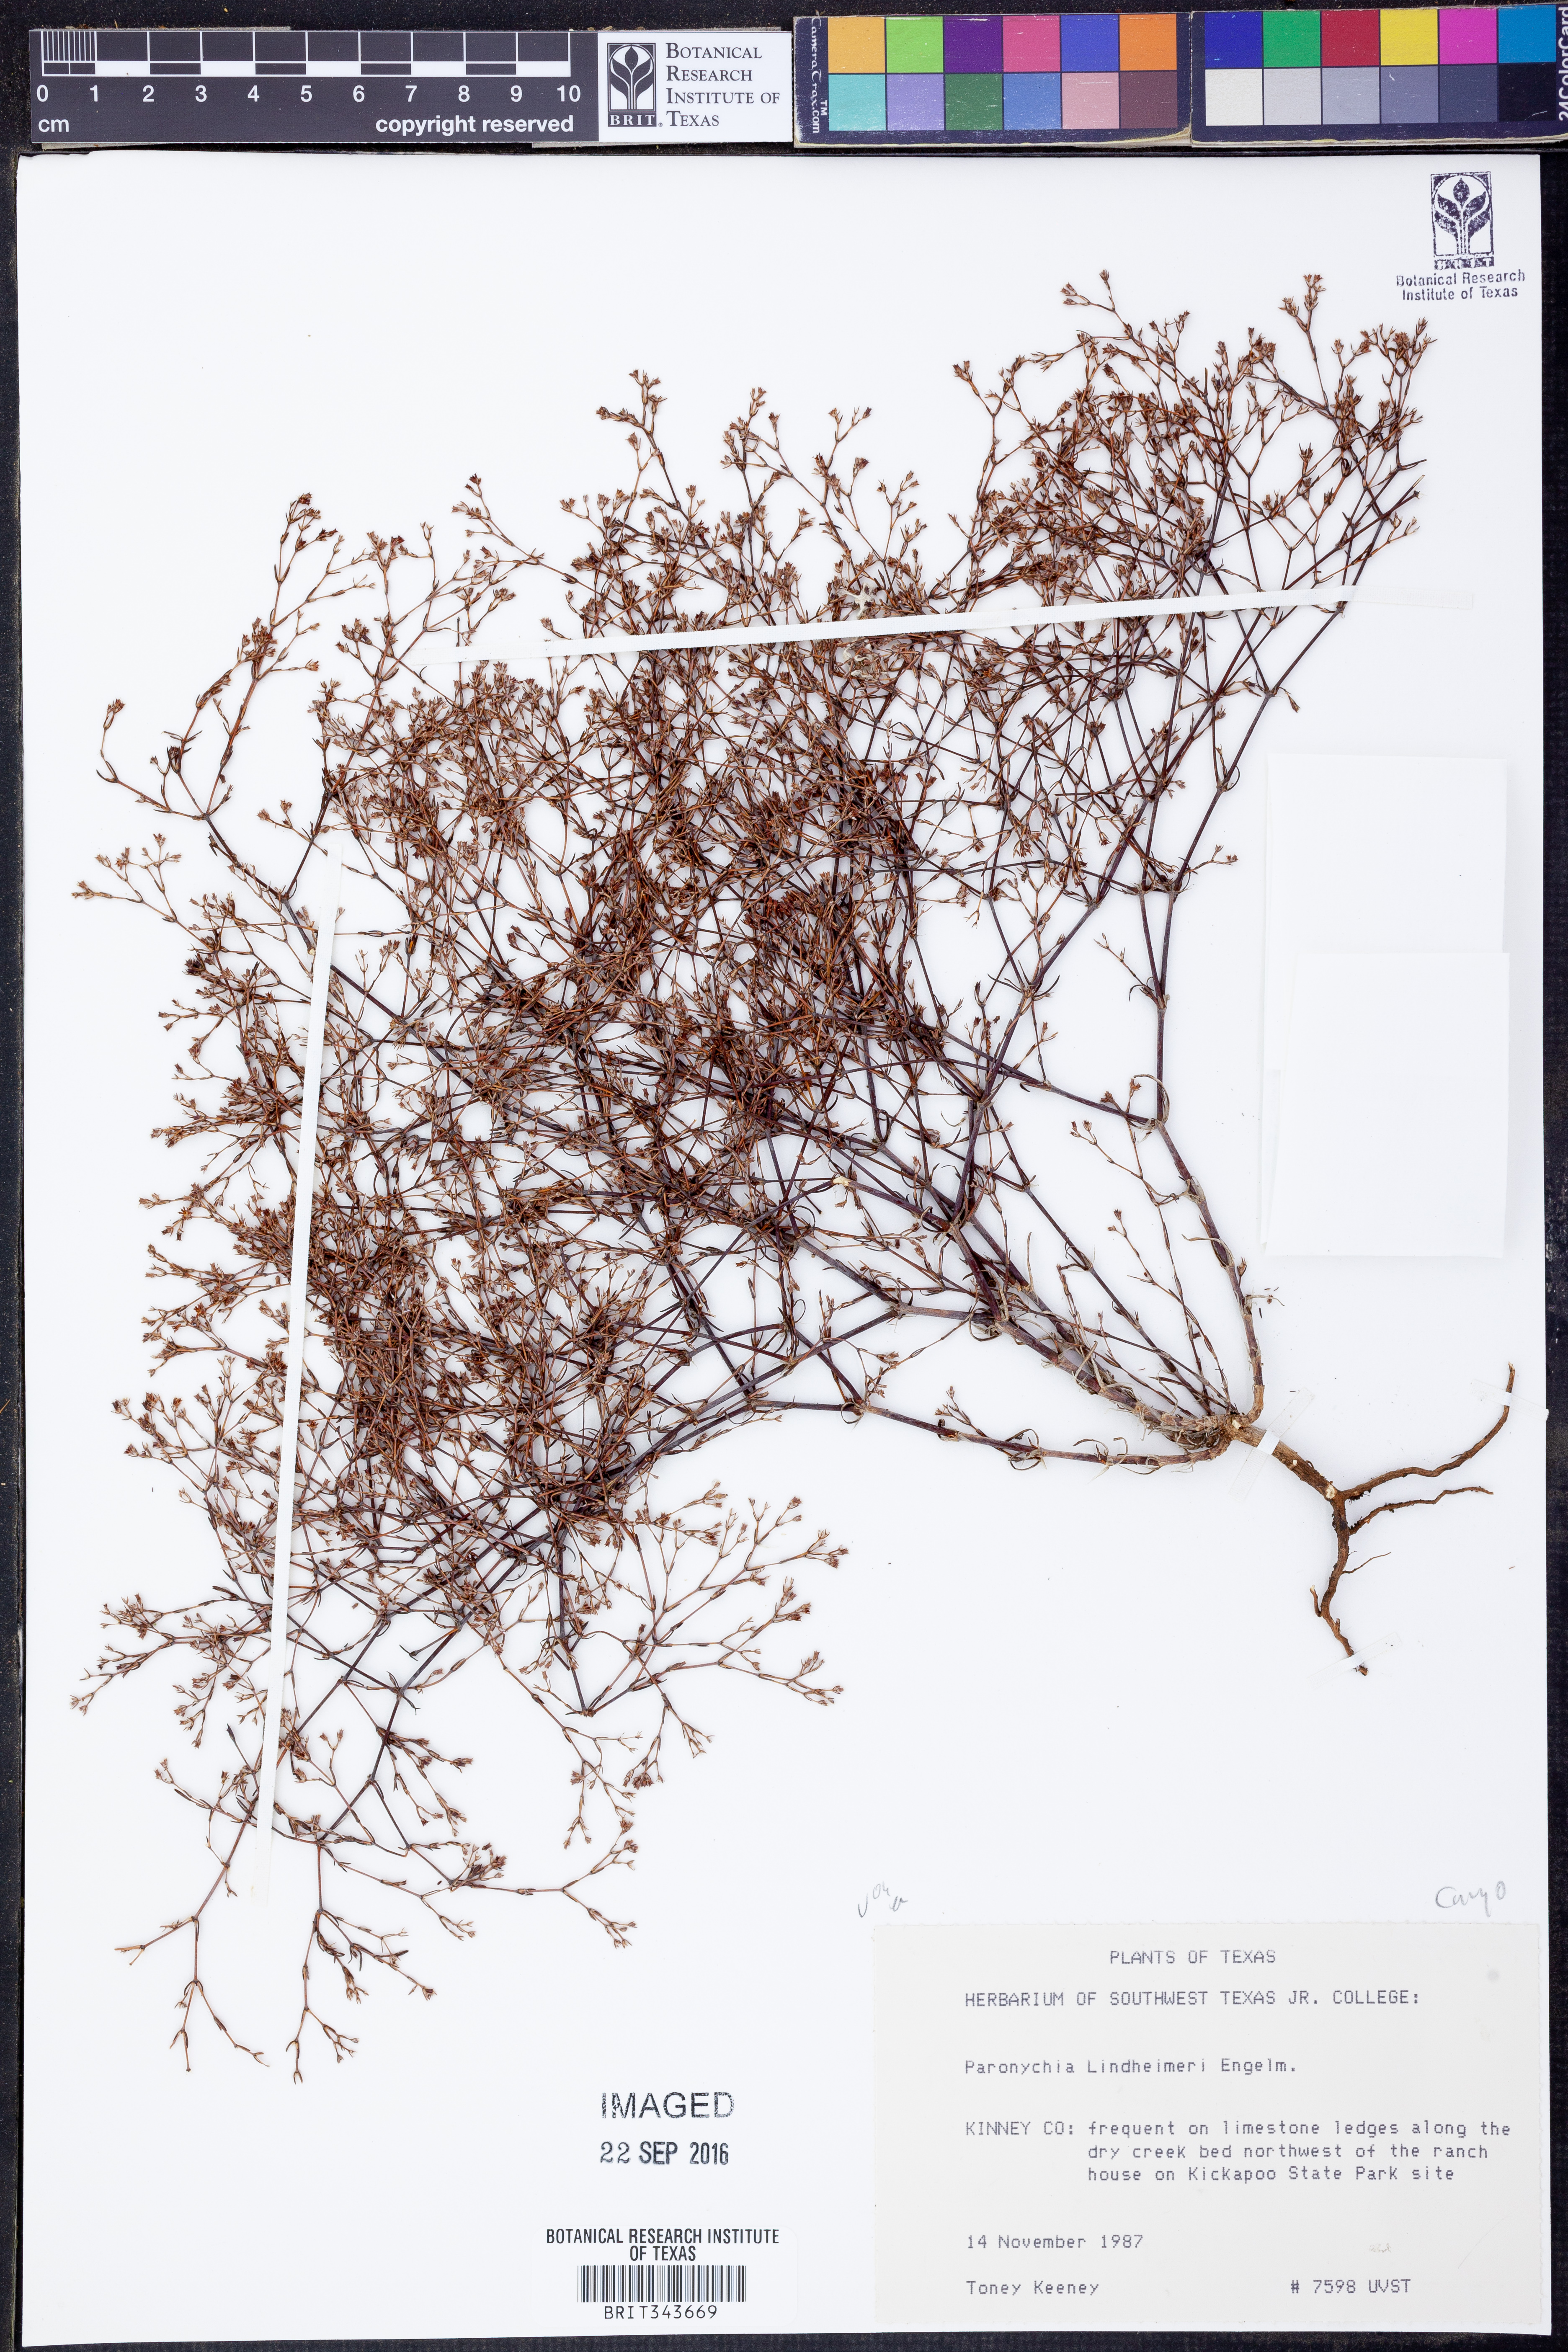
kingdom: Plantae
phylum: Tracheophyta
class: Magnoliopsida
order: Caryophyllales
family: Caryophyllaceae
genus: Paronychia
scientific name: Paronychia lindheimeri
